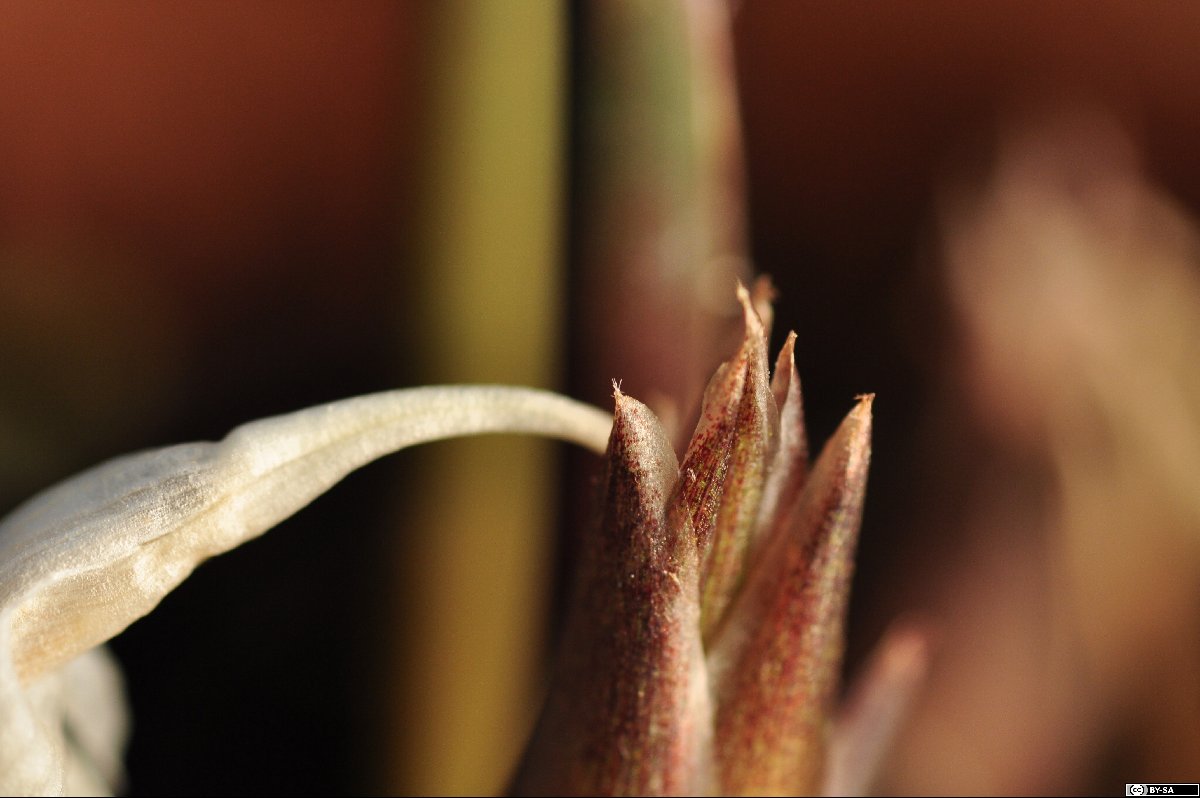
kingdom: Plantae
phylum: Tracheophyta
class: Liliopsida
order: Zingiberales
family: Zingiberaceae
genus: Zingiber
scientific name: Zingiber isanense
